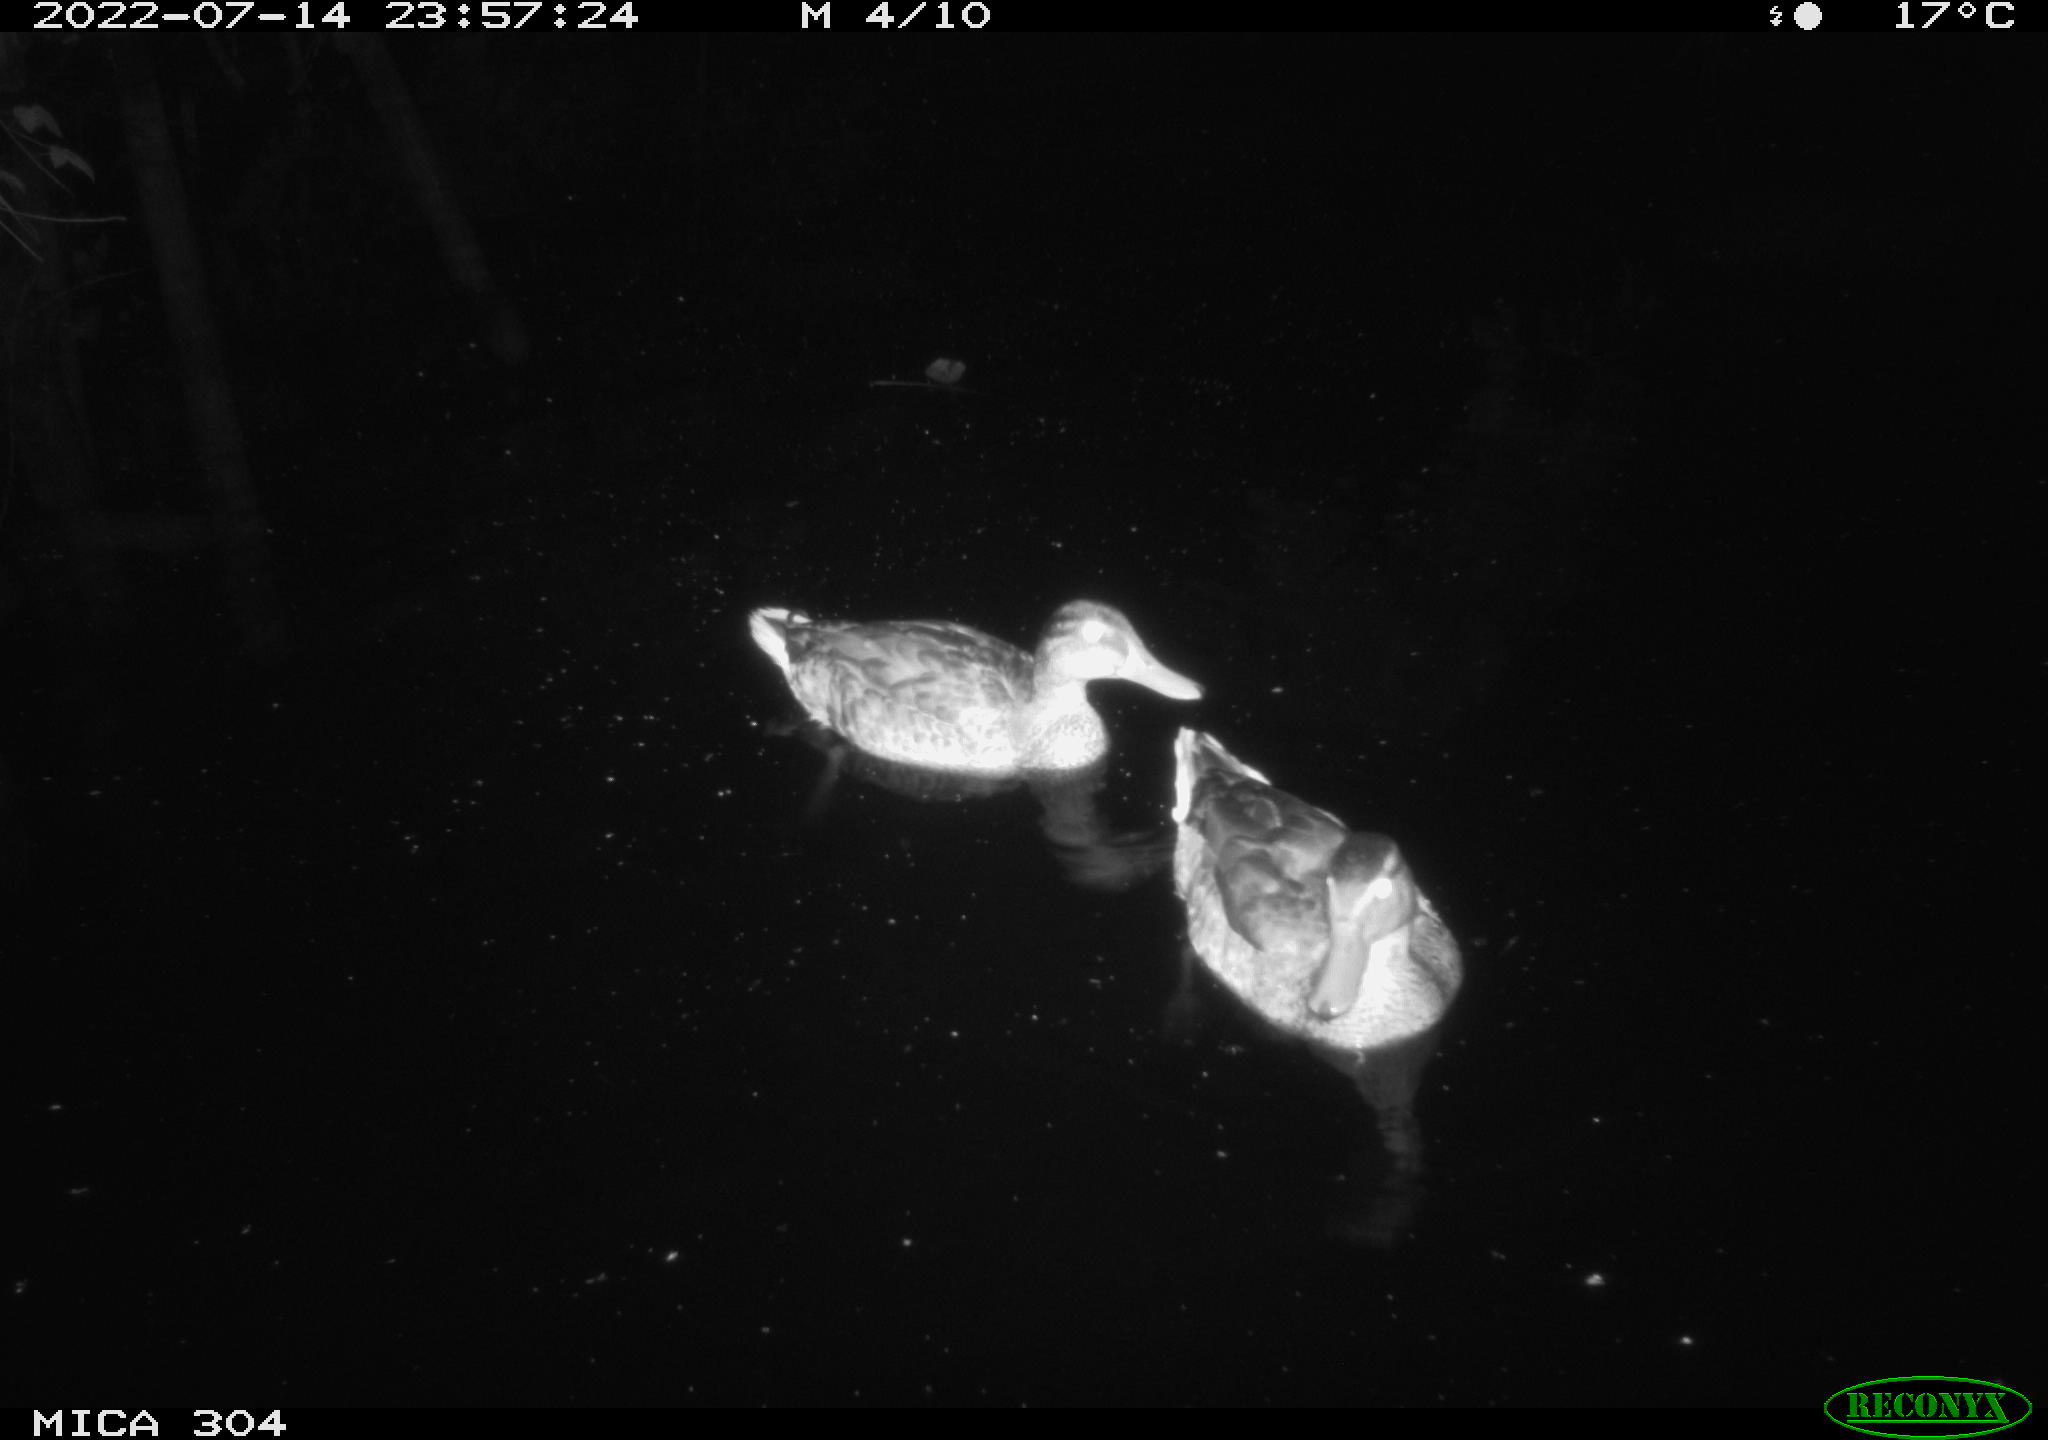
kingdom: Animalia
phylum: Chordata
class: Aves
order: Anseriformes
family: Anatidae
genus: Anas
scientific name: Anas platyrhynchos
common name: Mallard
